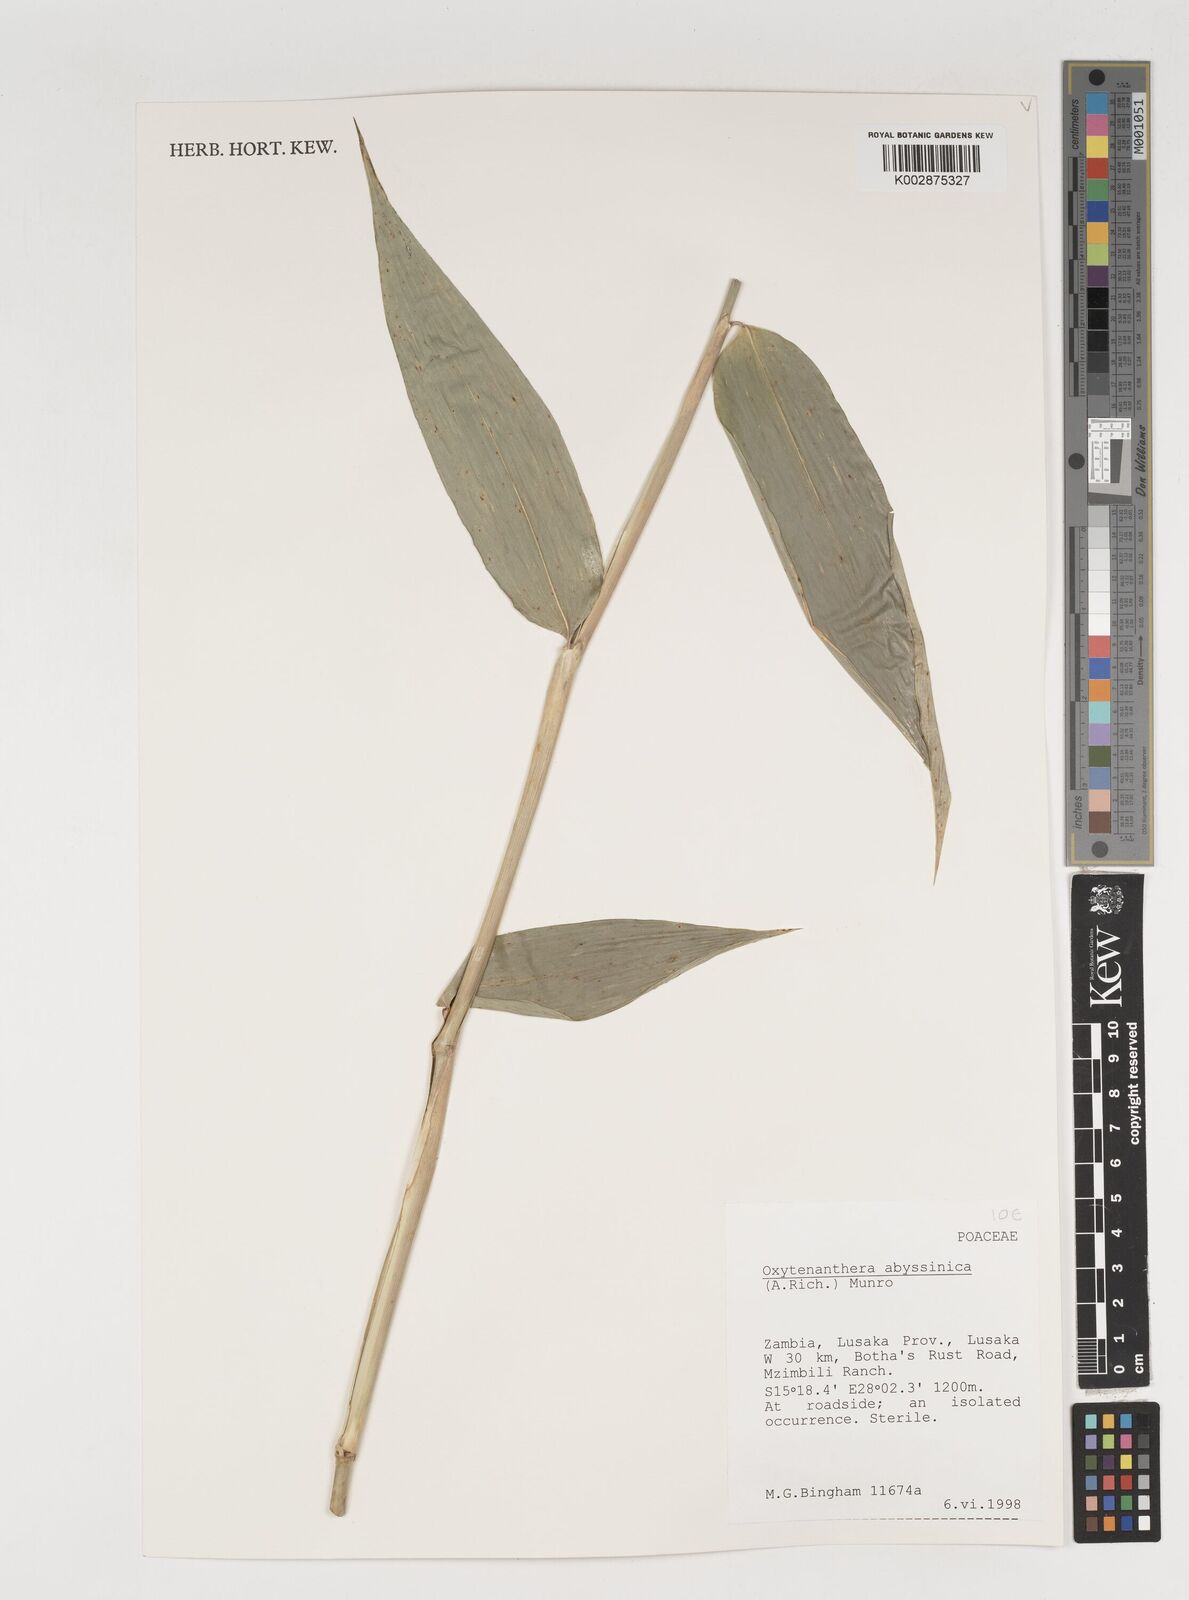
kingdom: Plantae
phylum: Tracheophyta
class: Liliopsida
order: Poales
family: Poaceae
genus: Oxytenanthera
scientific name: Oxytenanthera abyssinica
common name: Wine bamboo
